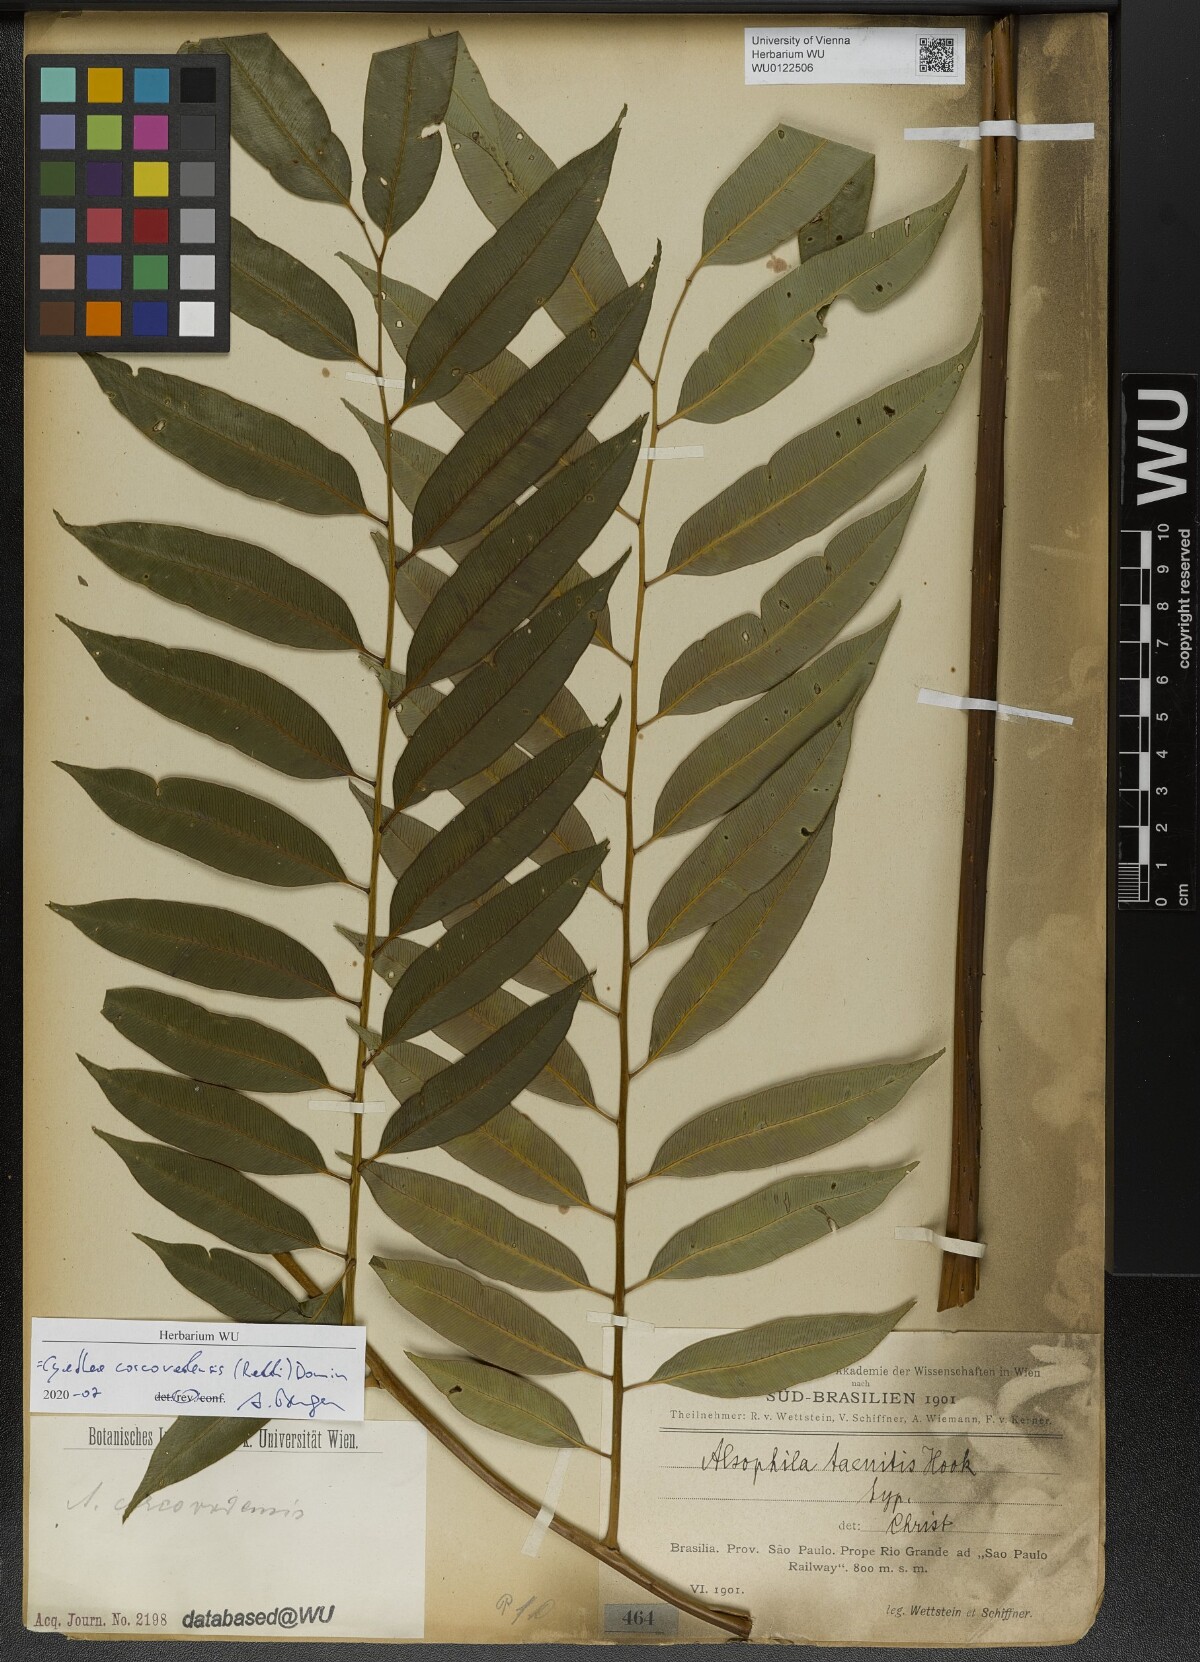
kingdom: Plantae
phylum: Tracheophyta
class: Polypodiopsida
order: Cyatheales
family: Cyatheaceae
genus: Cyathea
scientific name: Cyathea corcovadensis
